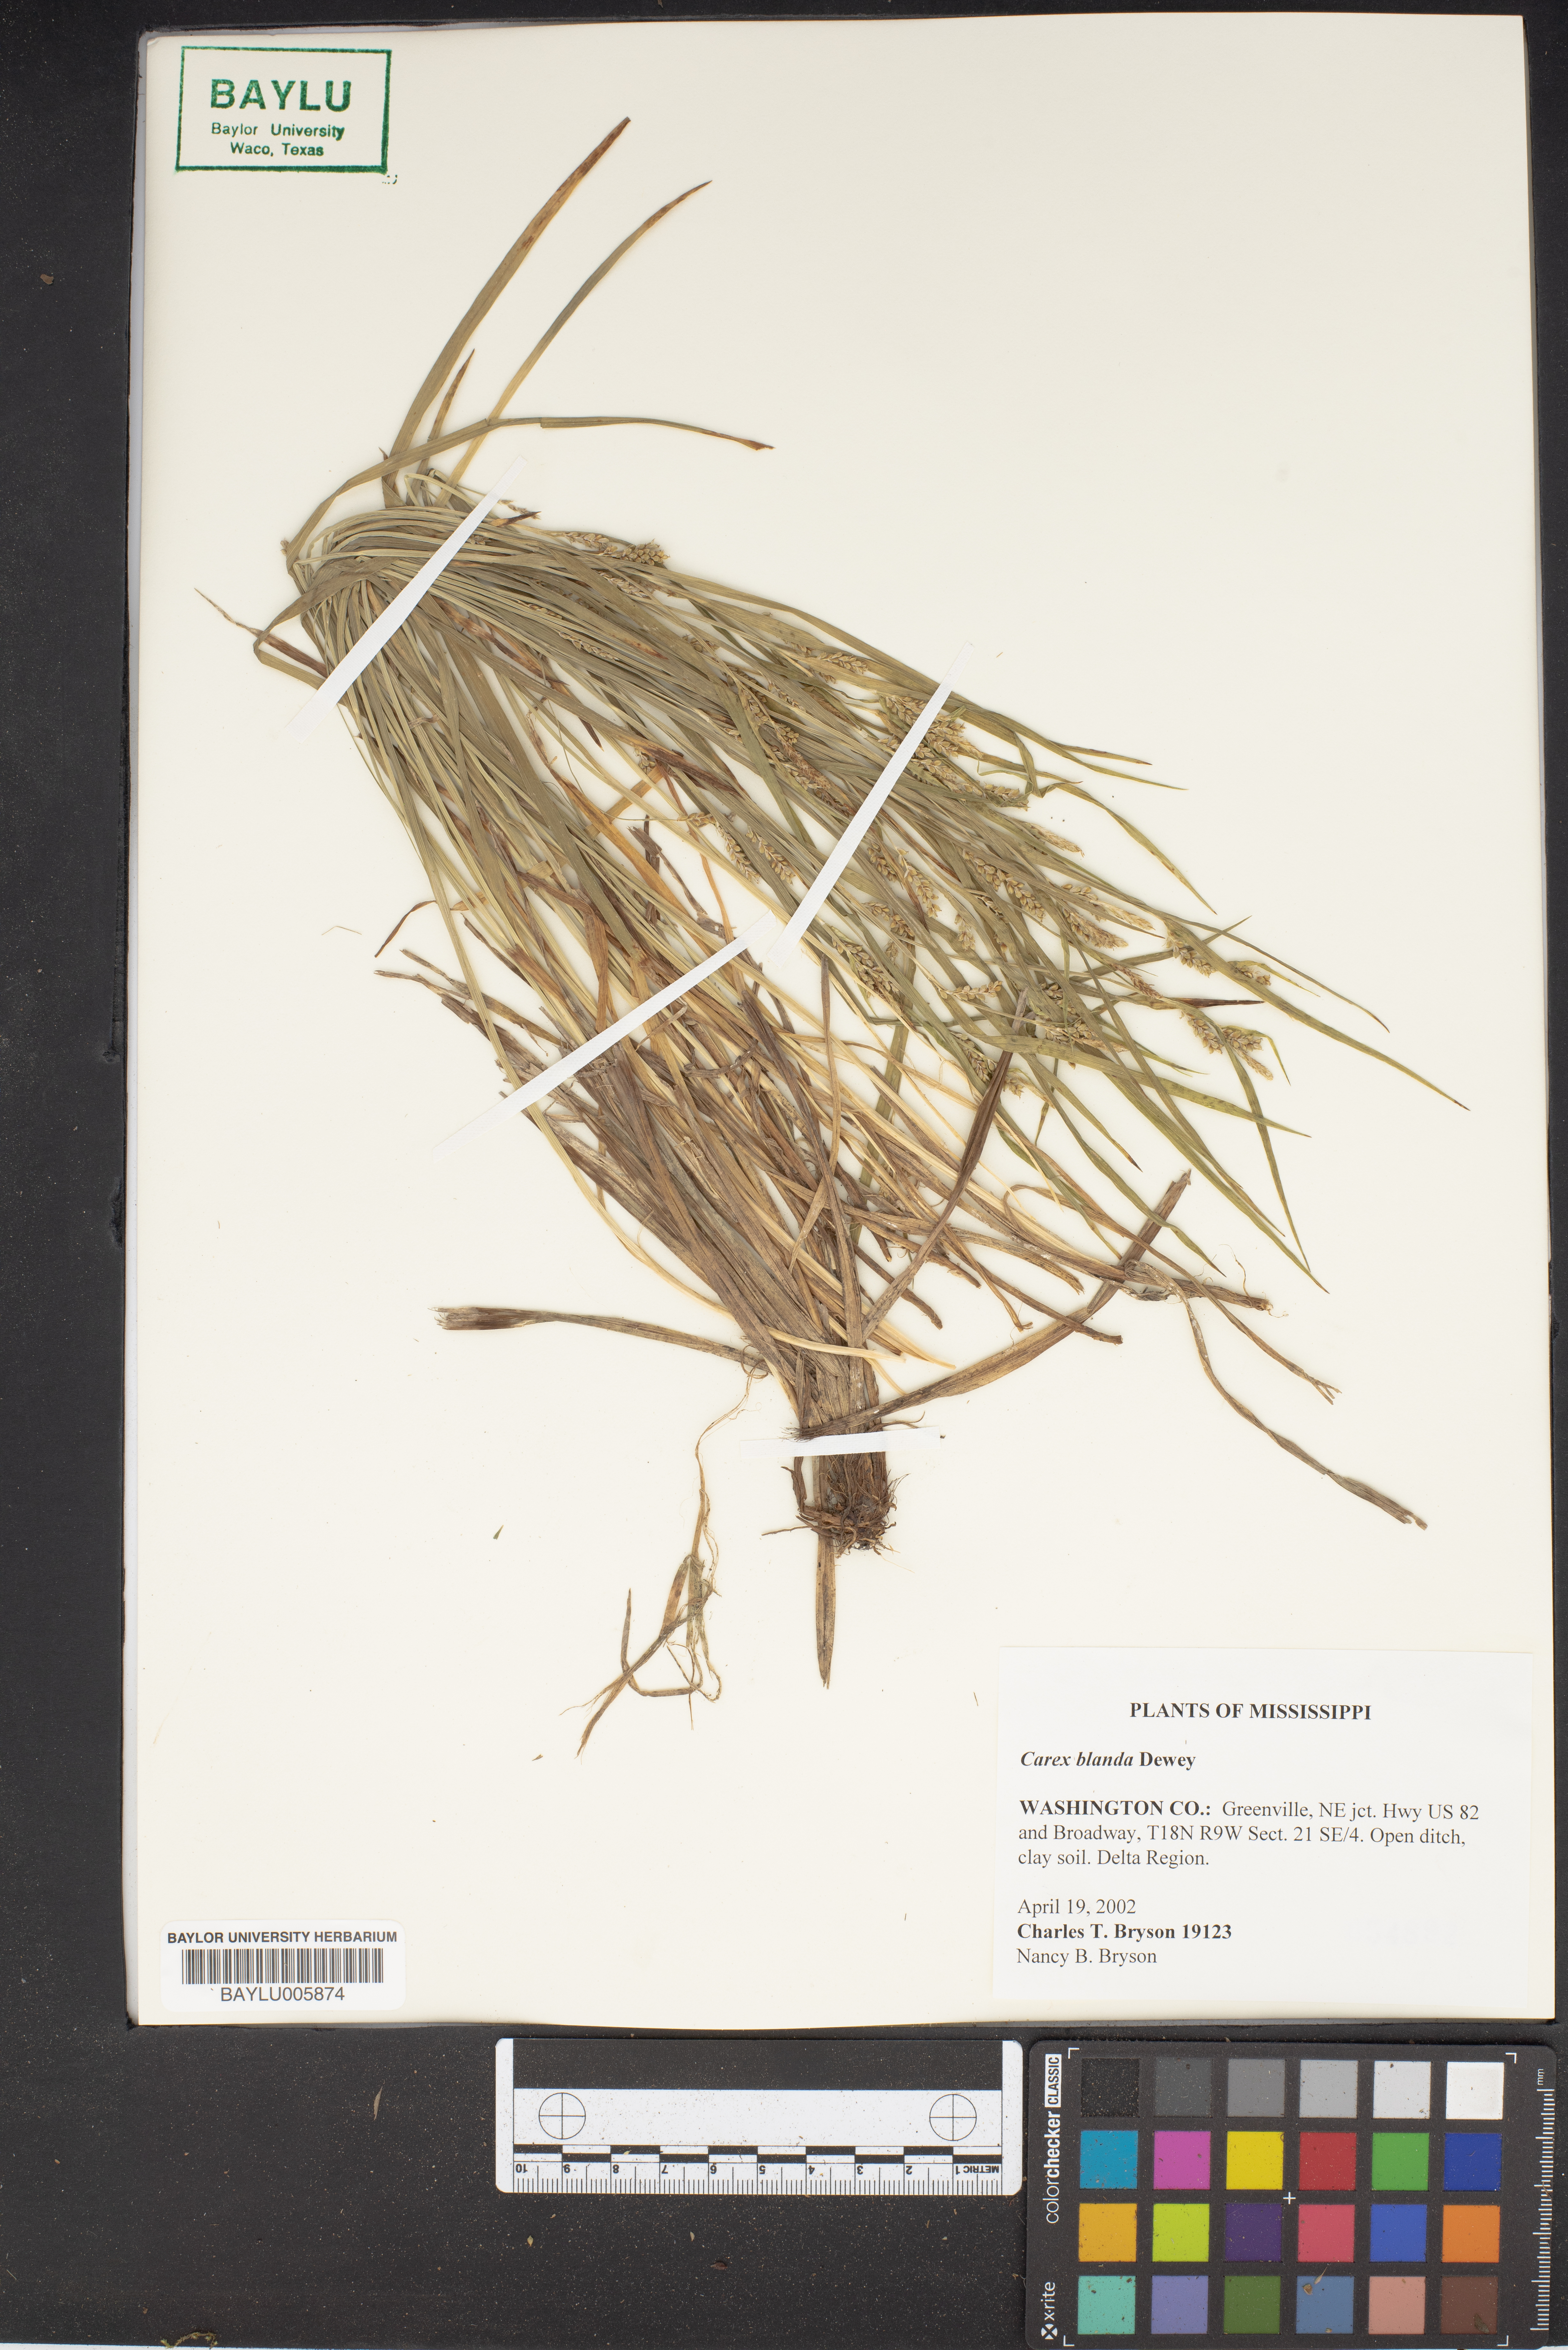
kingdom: Plantae
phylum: Tracheophyta
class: Liliopsida
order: Poales
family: Cyperaceae
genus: Carex
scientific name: Carex blanda
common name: Bland sedge
